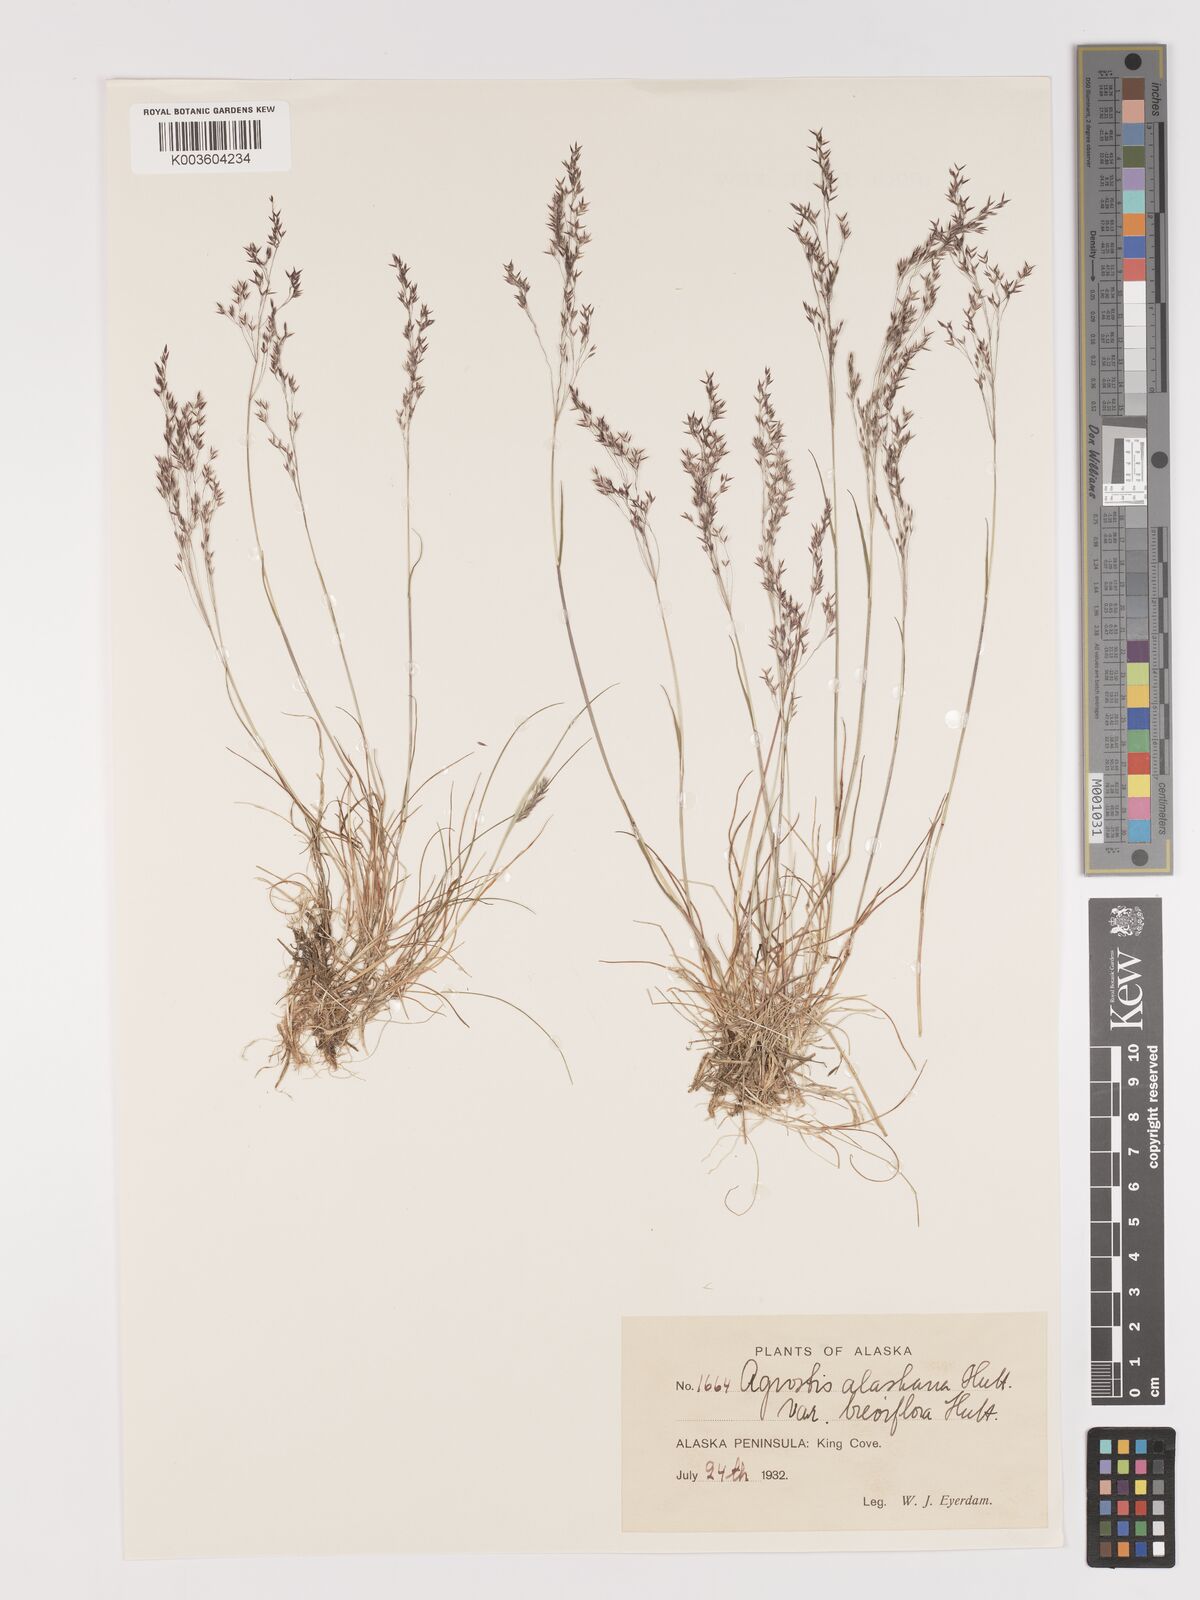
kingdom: Plantae
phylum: Tracheophyta
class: Liliopsida
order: Poales
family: Poaceae
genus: Agrostis
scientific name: Agrostis exarata
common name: Spike bent
